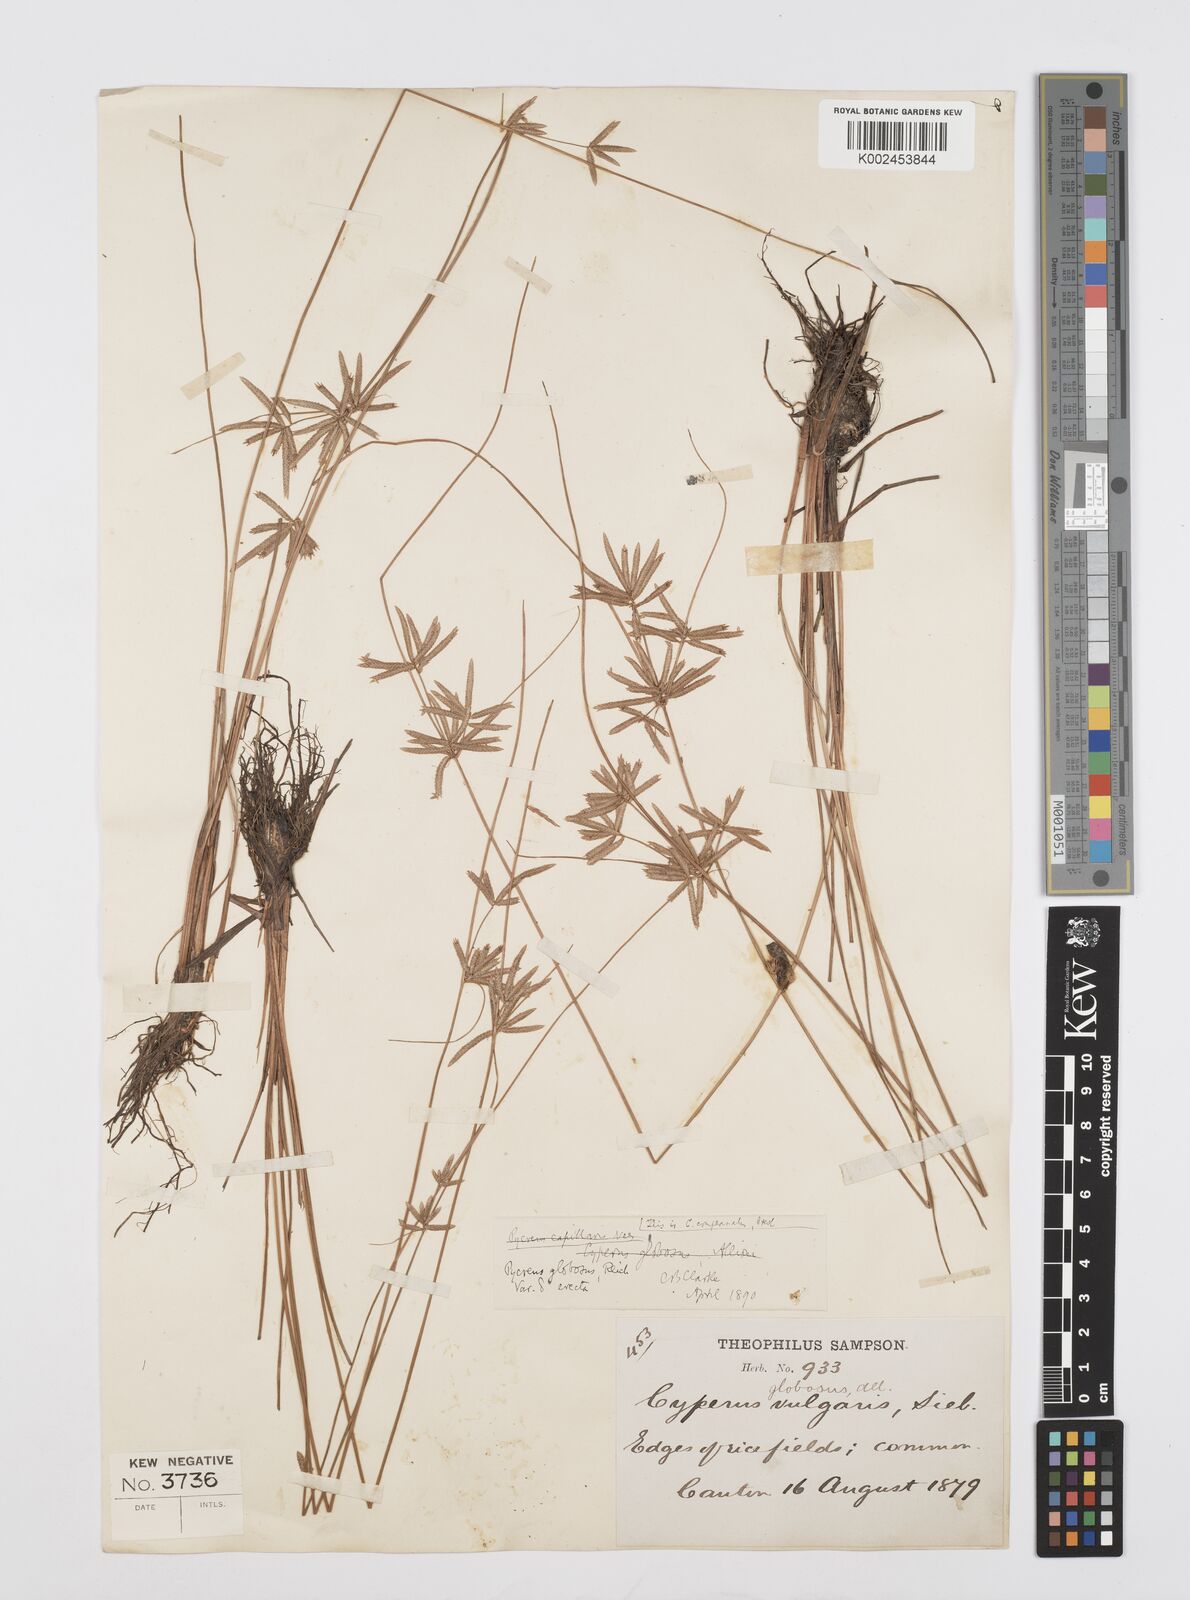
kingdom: Plantae
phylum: Tracheophyta
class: Liliopsida
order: Poales
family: Cyperaceae
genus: Cyperus
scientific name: Cyperus flavidus
